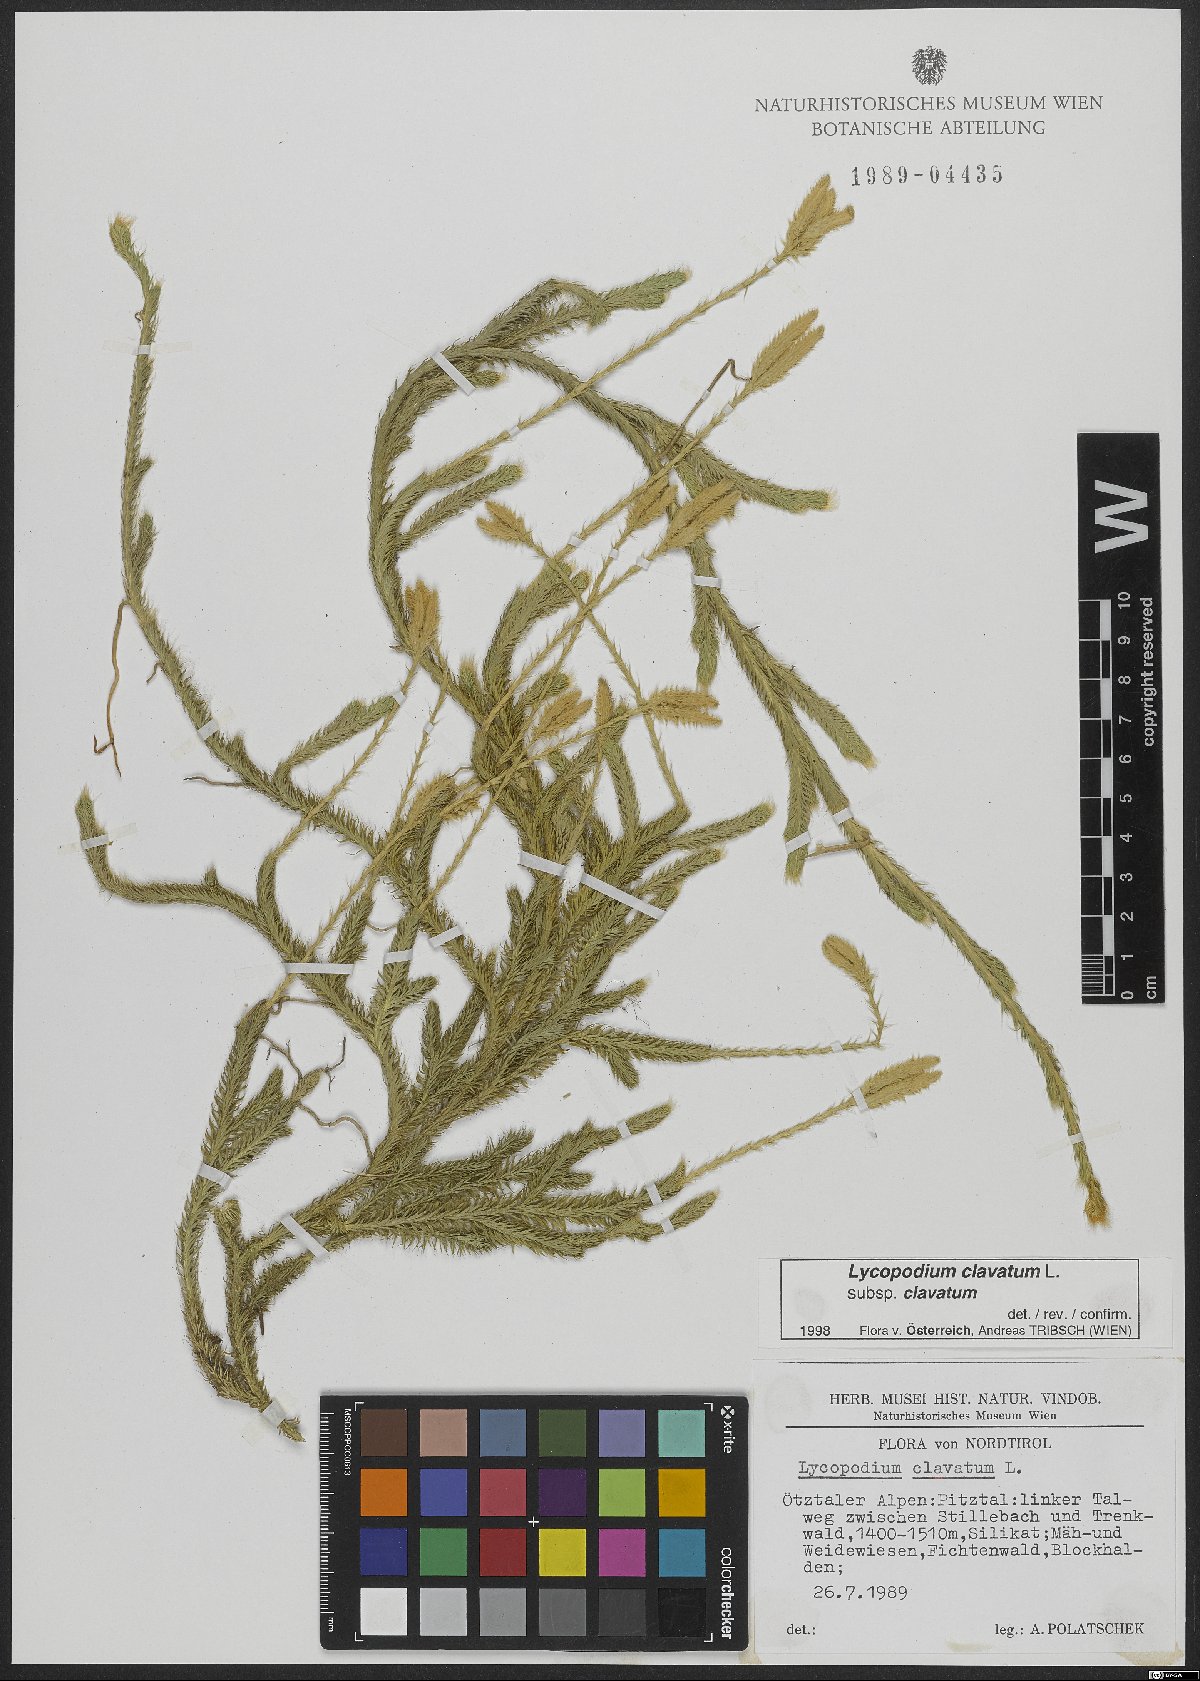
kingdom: Plantae
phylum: Tracheophyta
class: Lycopodiopsida
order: Lycopodiales
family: Lycopodiaceae
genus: Lycopodium
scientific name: Lycopodium clavatum
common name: Stag's-horn clubmoss
